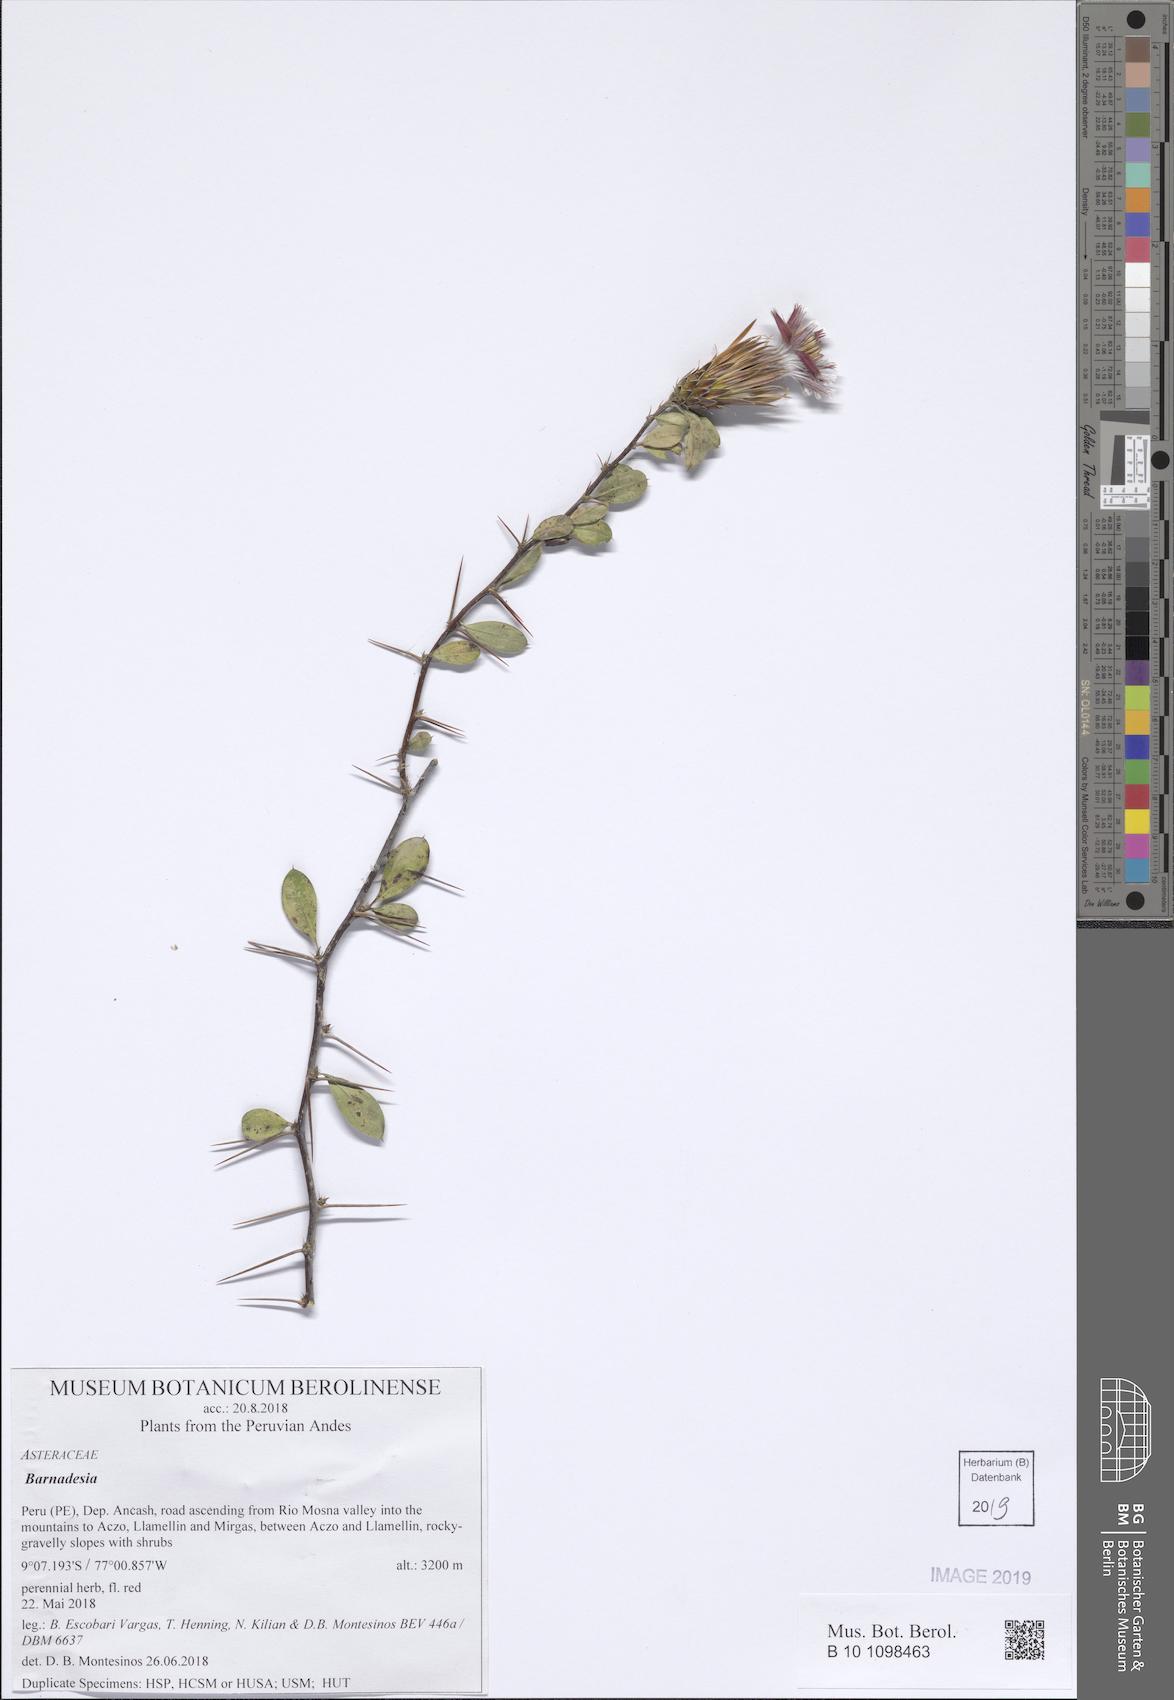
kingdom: Plantae
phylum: Tracheophyta
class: Magnoliopsida
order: Asterales
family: Asteraceae
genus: Barnadesia
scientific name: Barnadesia
